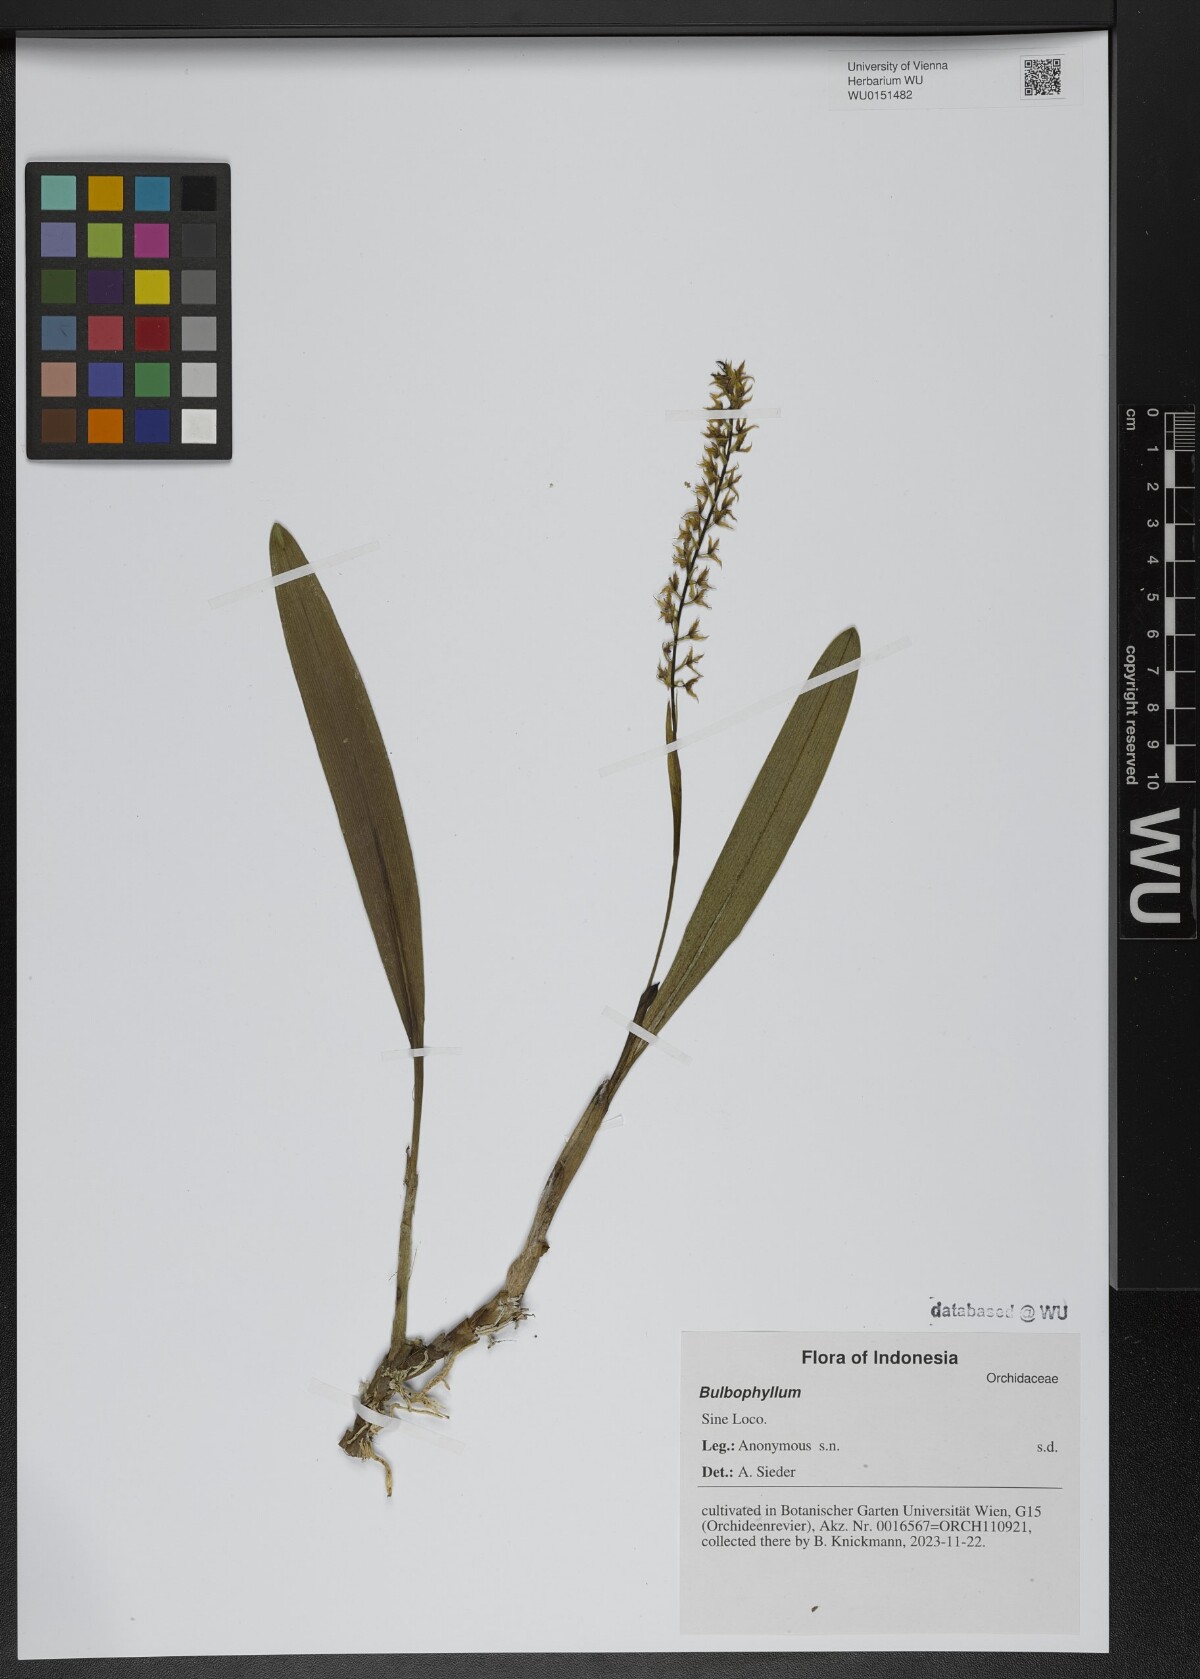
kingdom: Plantae
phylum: Tracheophyta
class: Liliopsida
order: Asparagales
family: Orchidaceae
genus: Bulbophyllum
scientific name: Bulbophyllum
